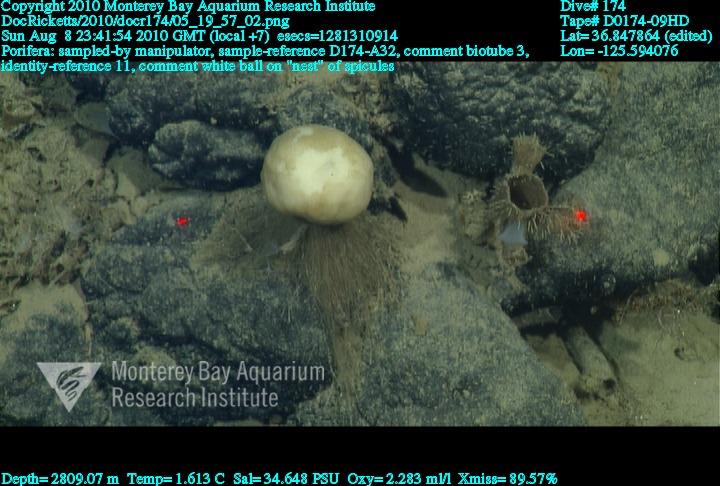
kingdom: Animalia
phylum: Porifera
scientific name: Porifera
